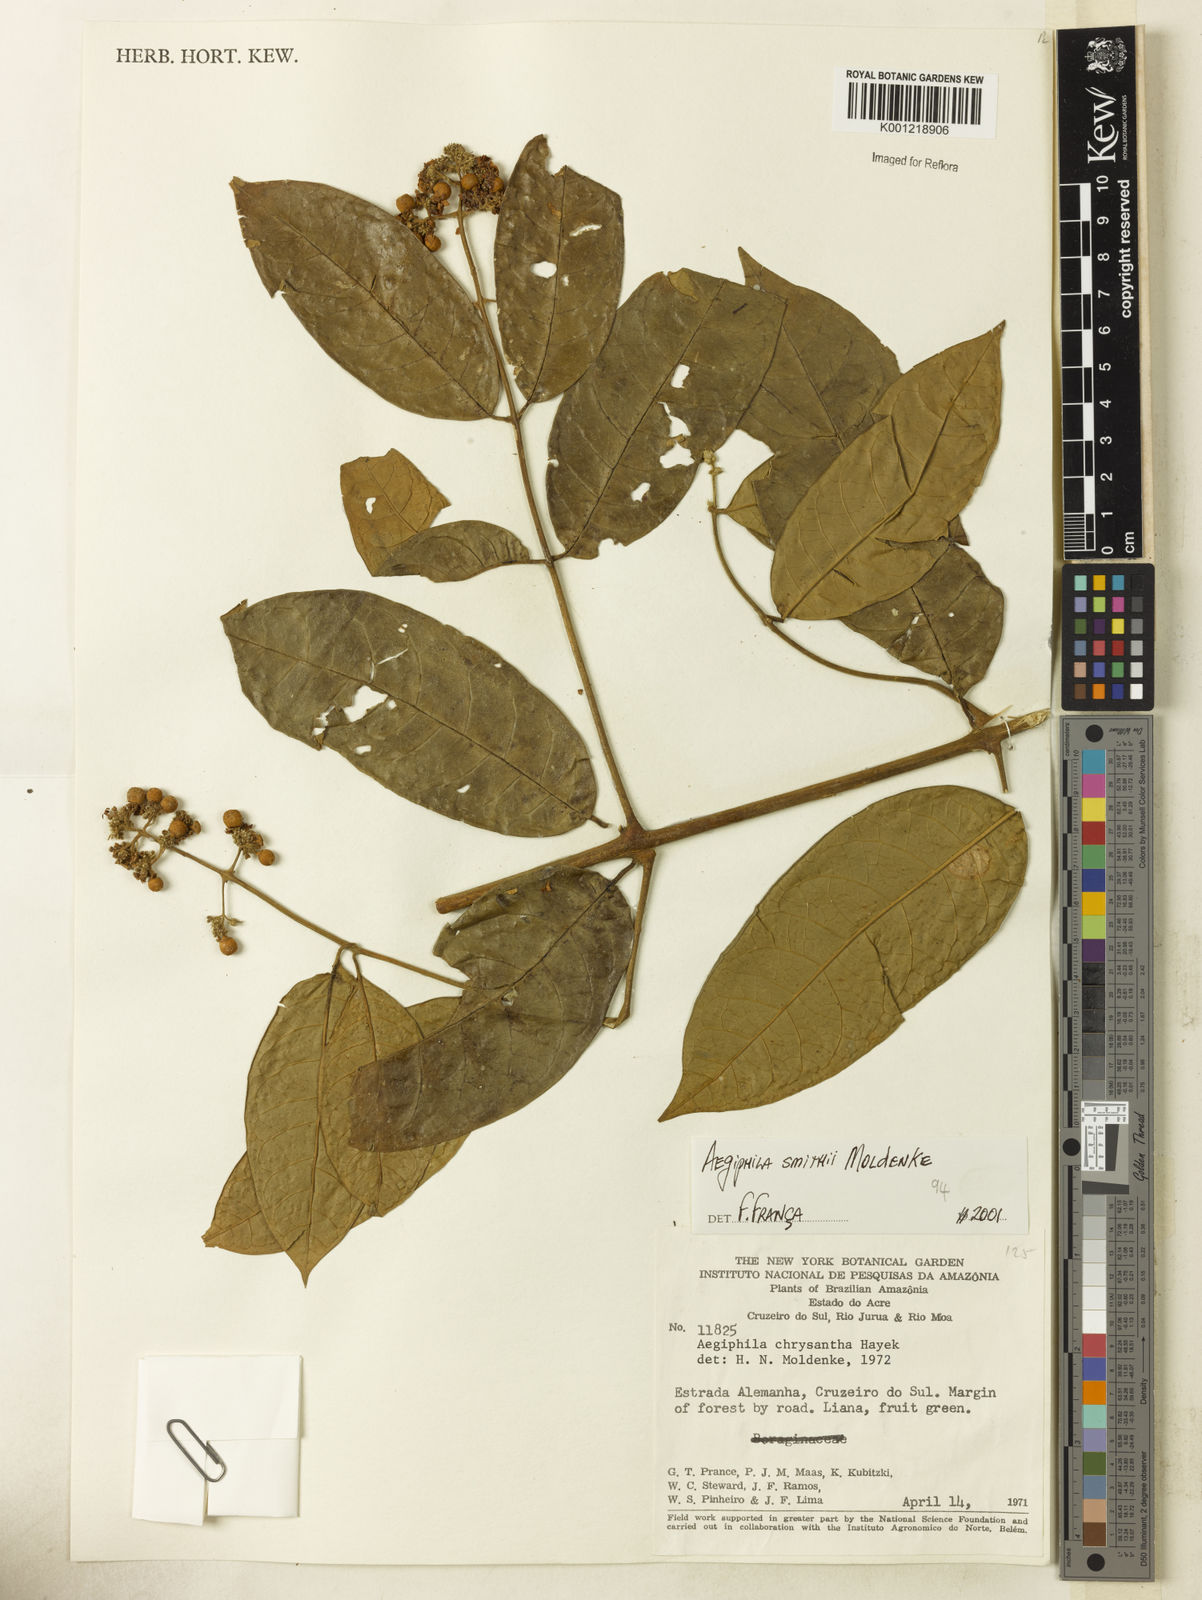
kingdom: Plantae
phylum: Tracheophyta
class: Magnoliopsida
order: Lamiales
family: Lamiaceae
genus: Aegiphila
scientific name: Aegiphila smithii
